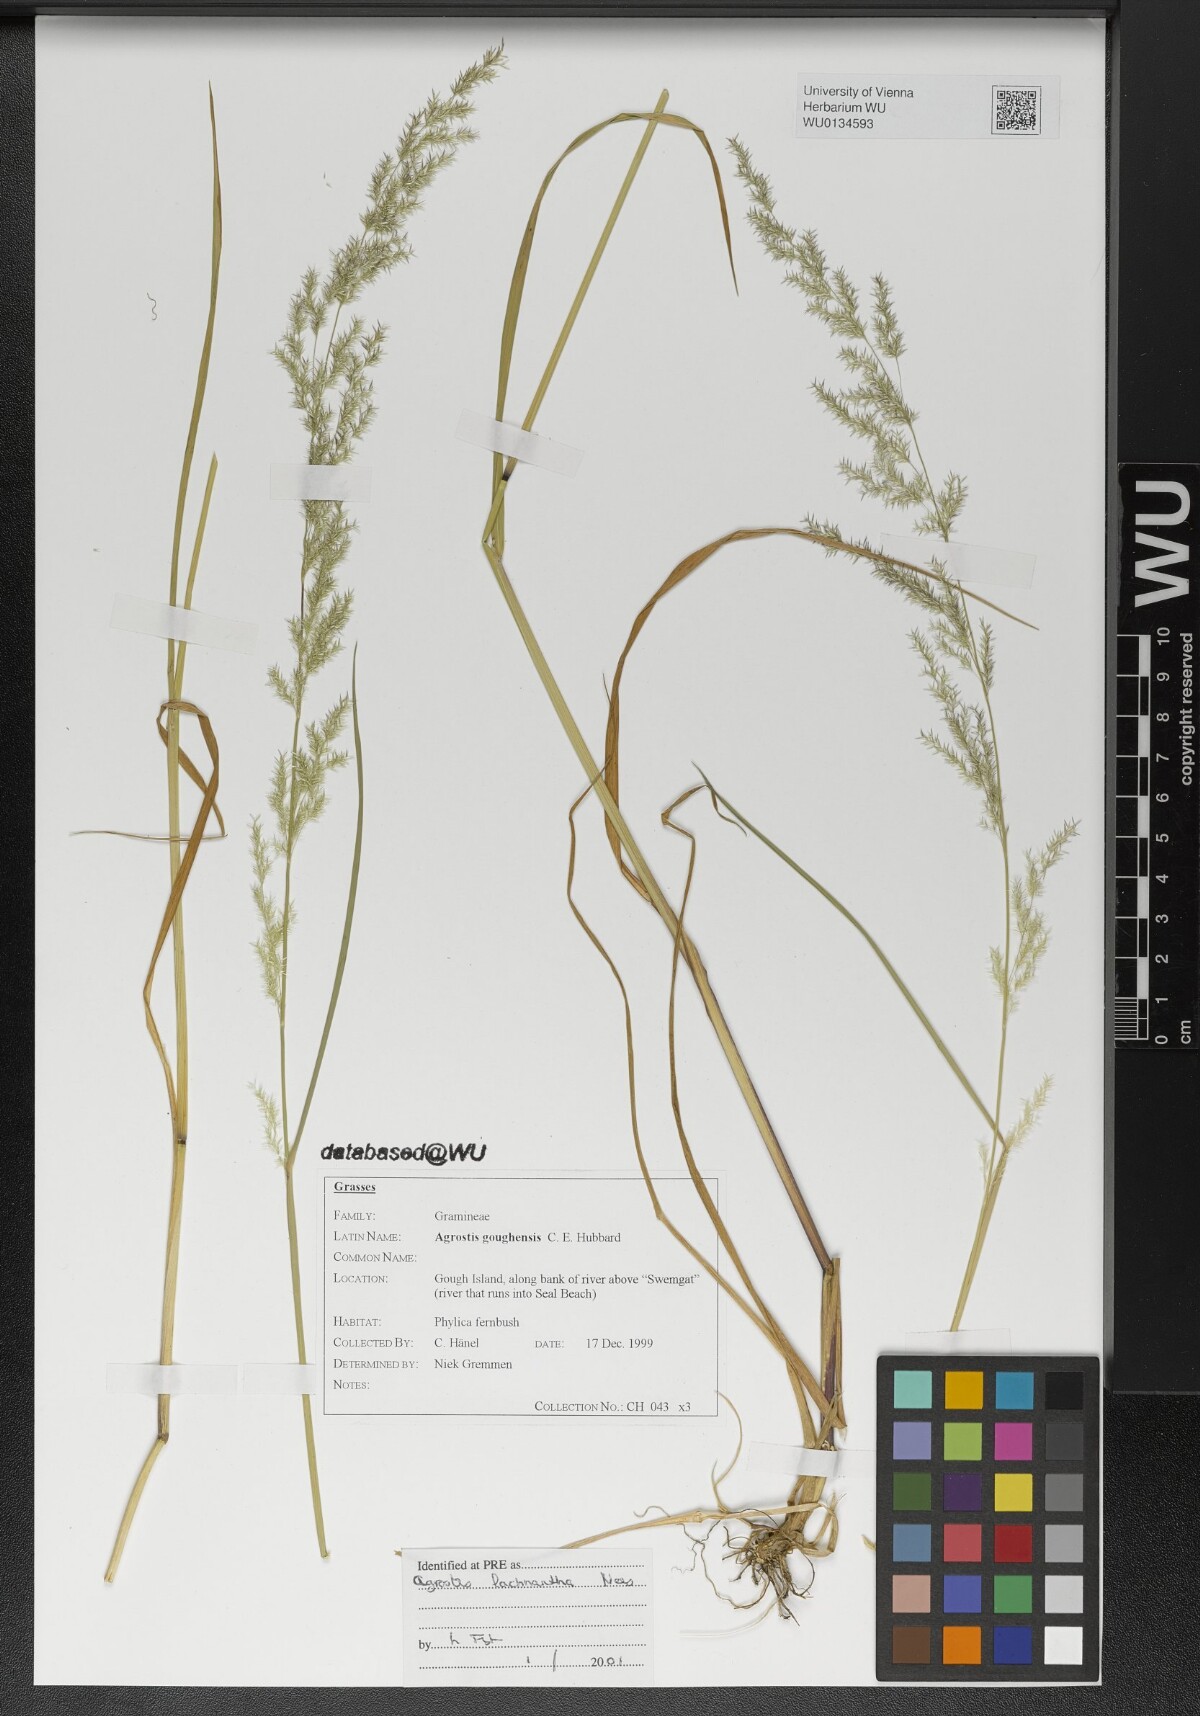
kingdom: Plantae
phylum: Tracheophyta
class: Liliopsida
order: Poales
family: Poaceae
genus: Lachnagrostis
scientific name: Lachnagrostis lachnantha
